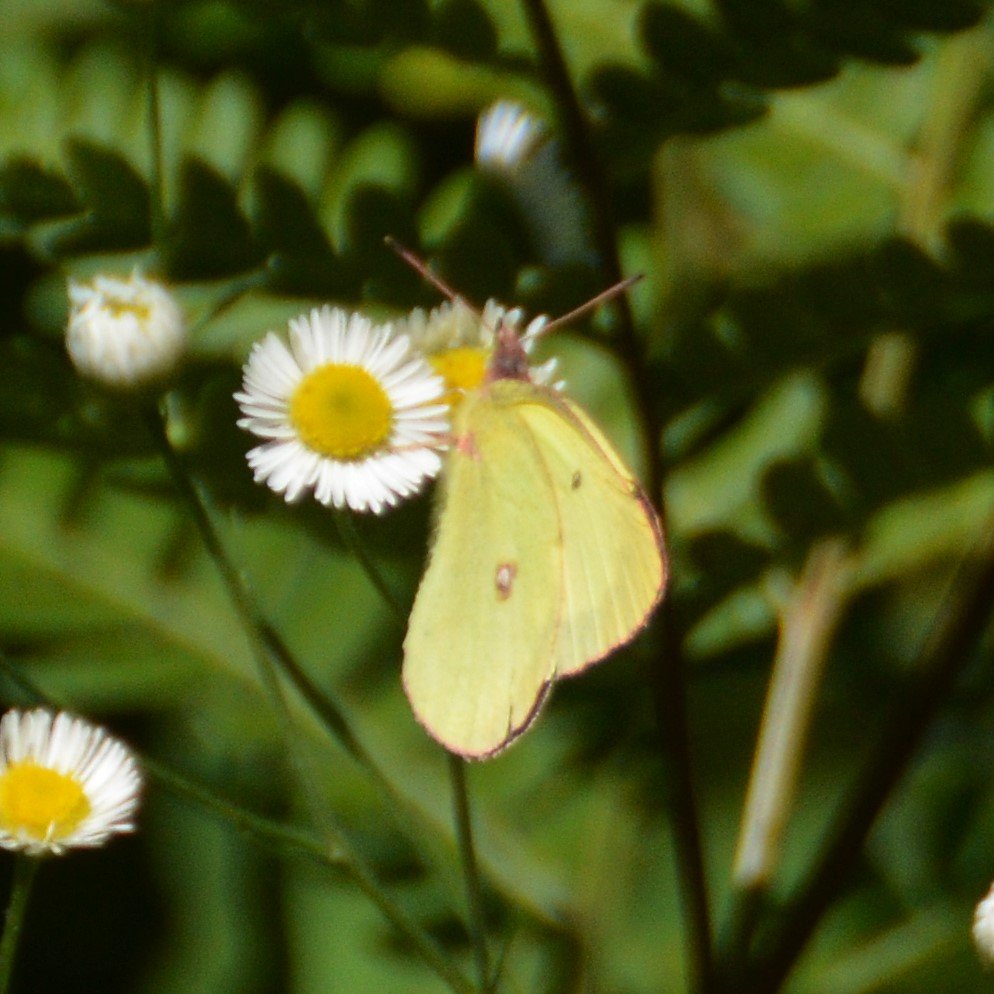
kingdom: Animalia
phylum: Arthropoda
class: Insecta
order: Lepidoptera
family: Pieridae
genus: Colias
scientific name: Colias interior
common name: Pink-edged Sulphur
